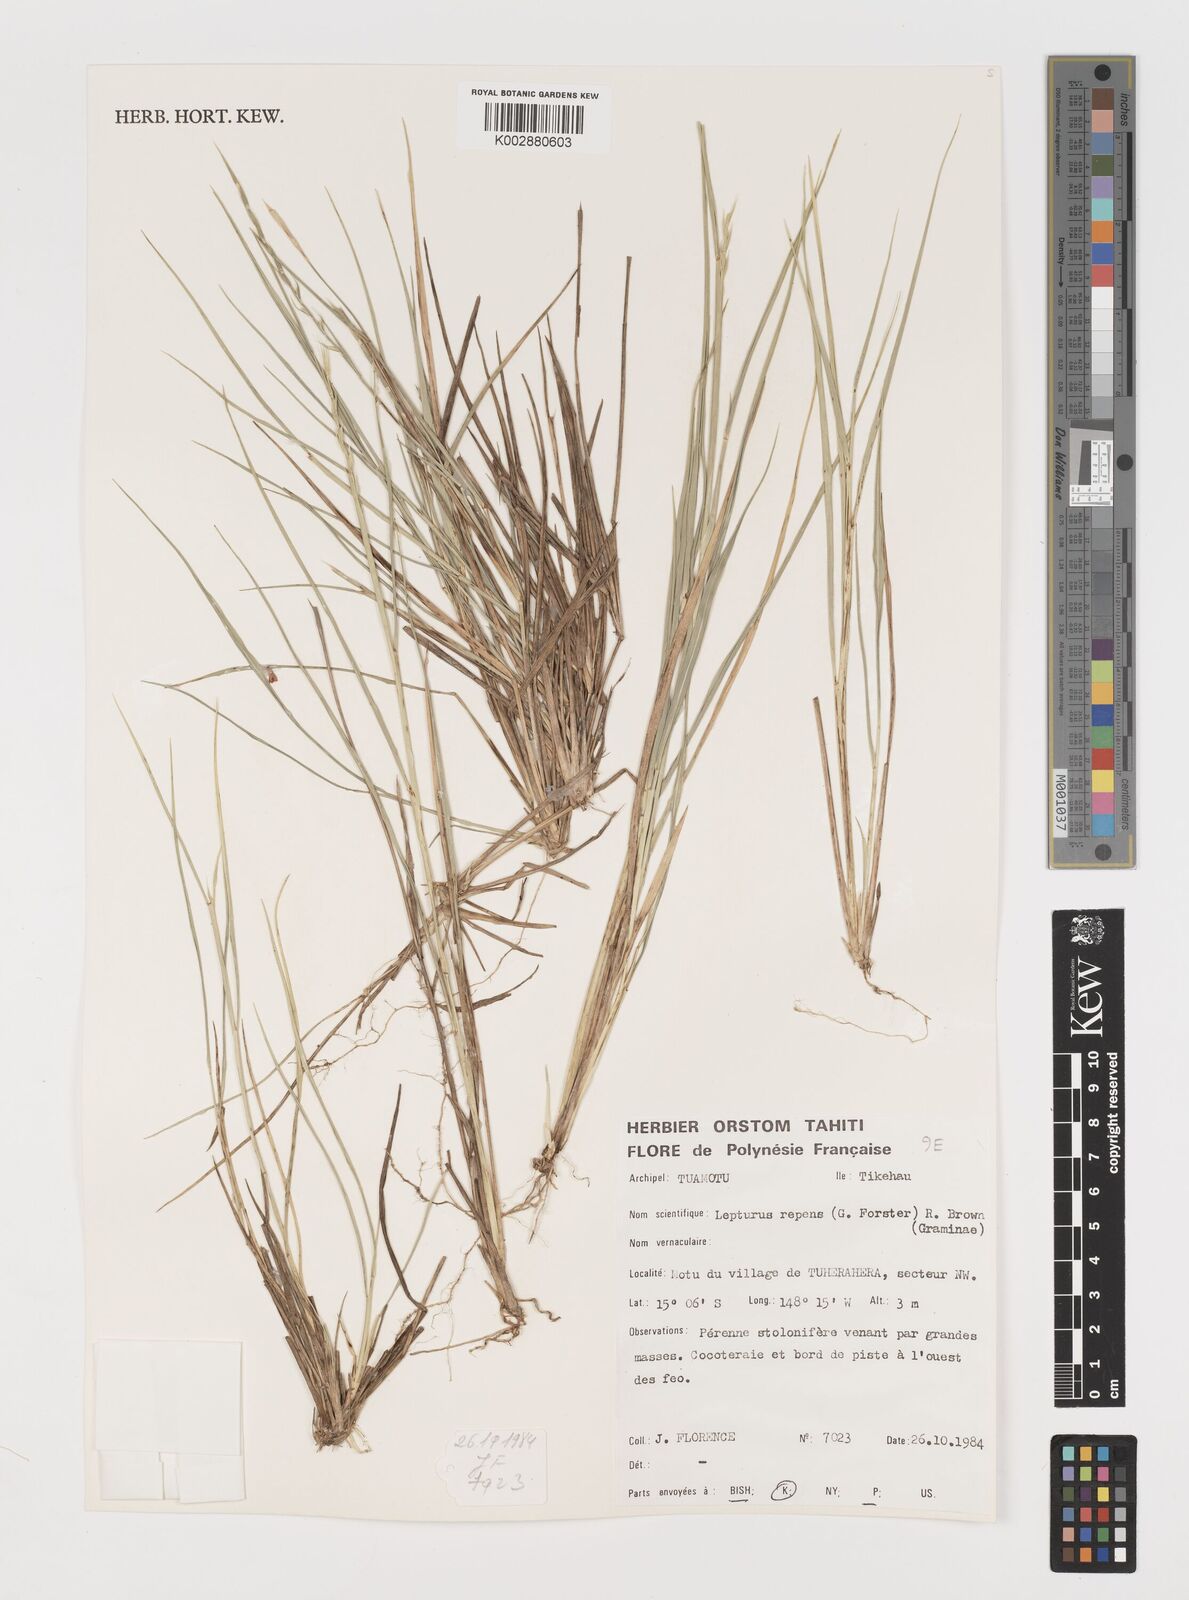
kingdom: Plantae
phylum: Tracheophyta
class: Liliopsida
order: Poales
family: Poaceae
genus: Lepturus
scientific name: Lepturus repens
